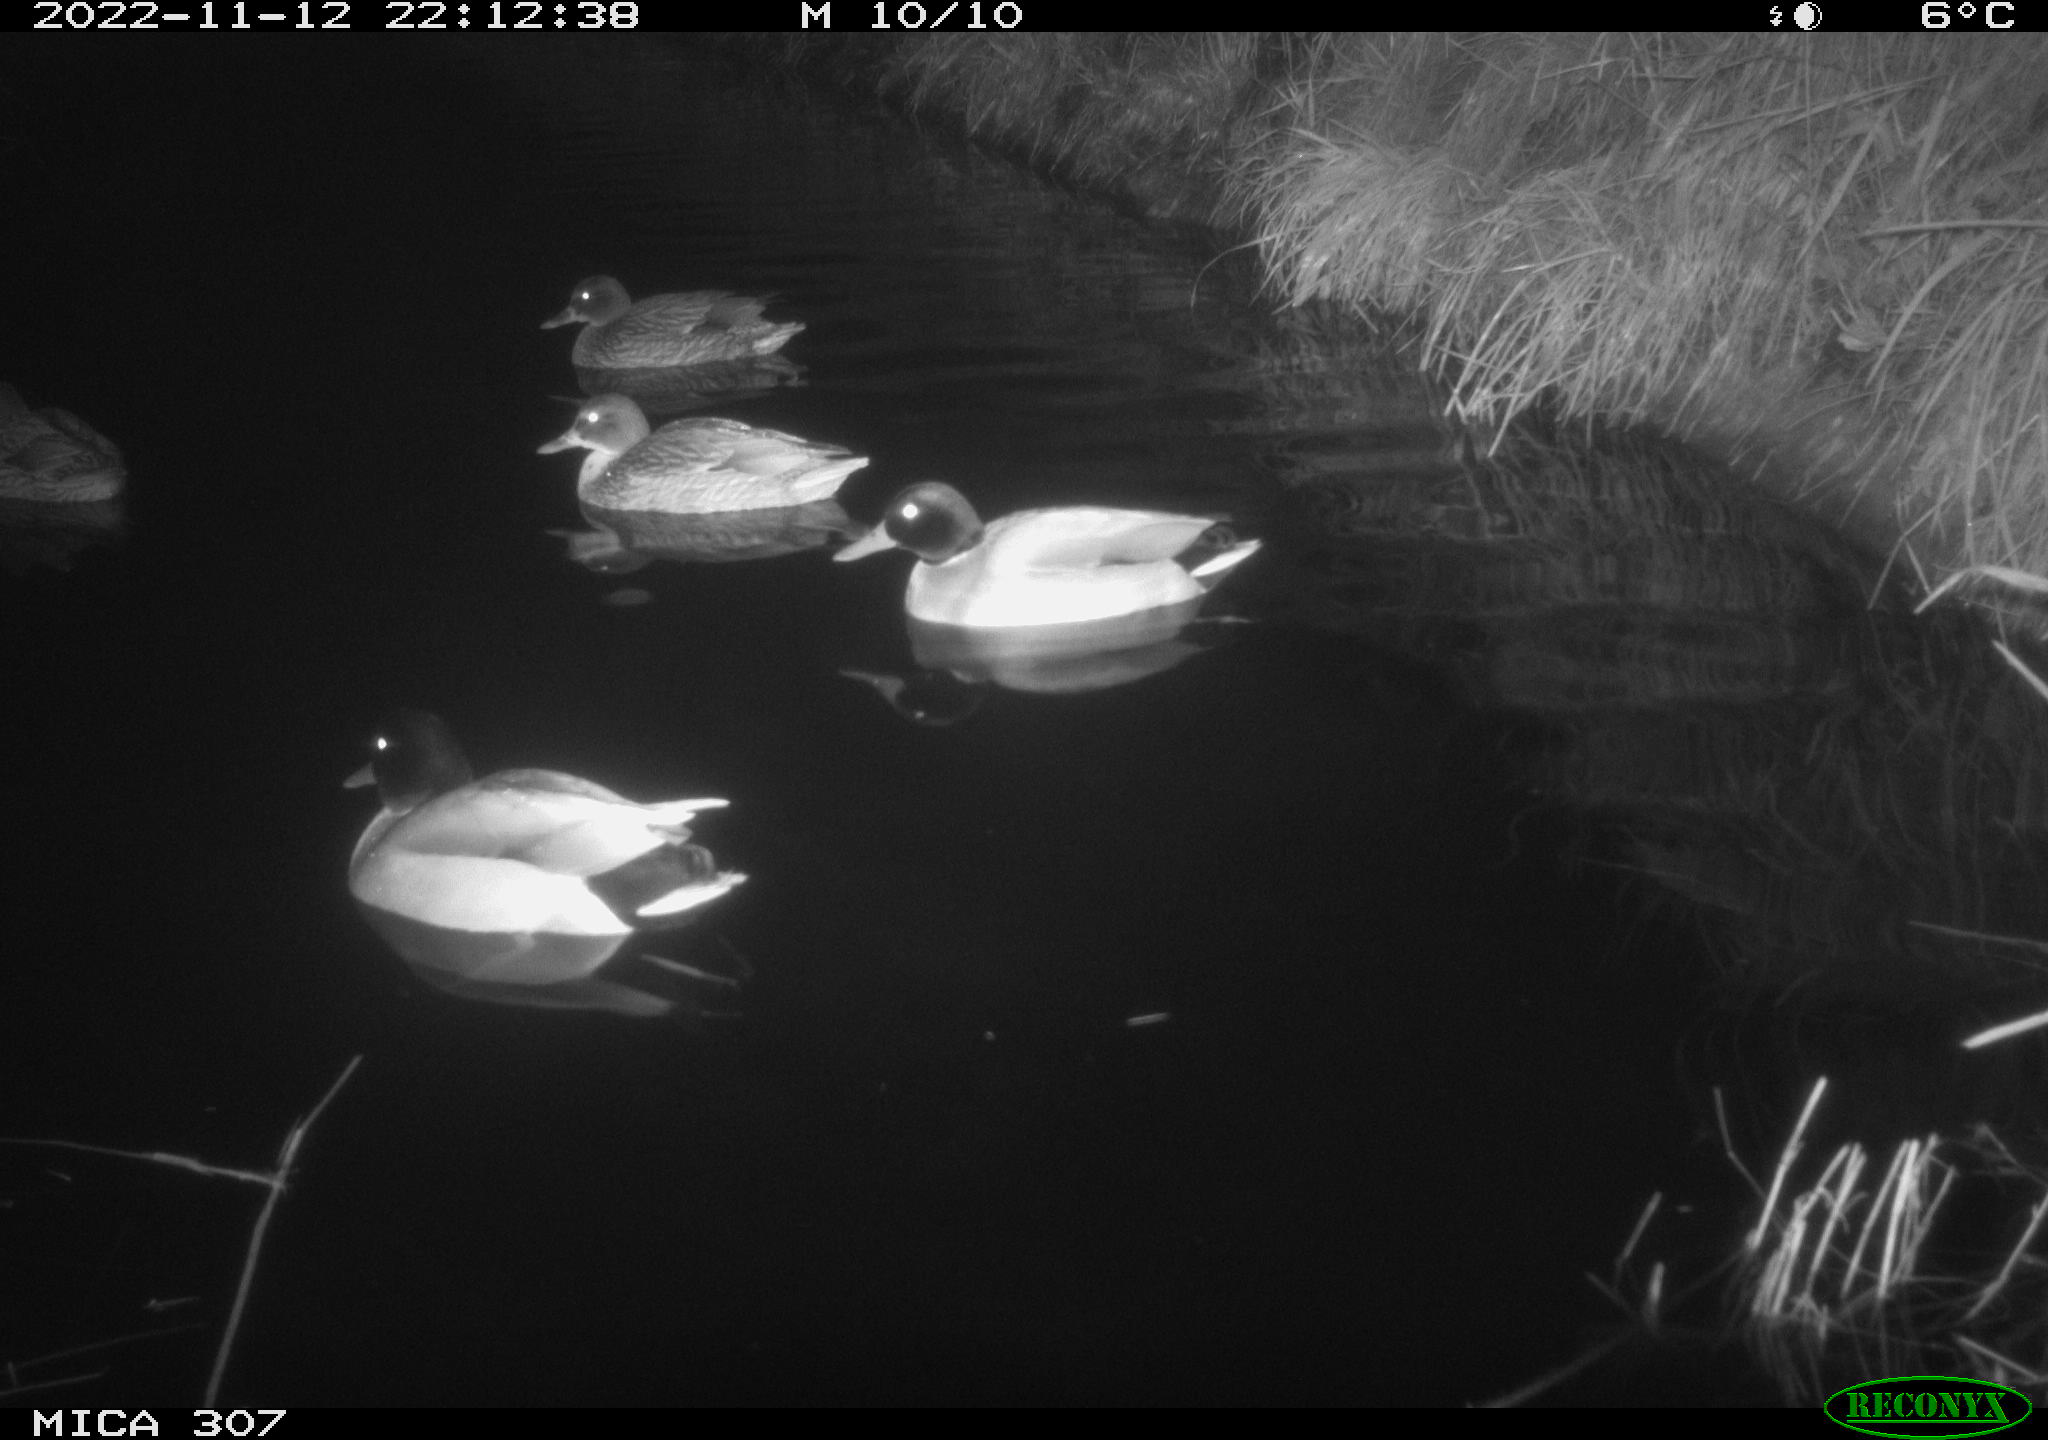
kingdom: Animalia
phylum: Chordata
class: Aves
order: Anseriformes
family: Anatidae
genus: Anas
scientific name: Anas
